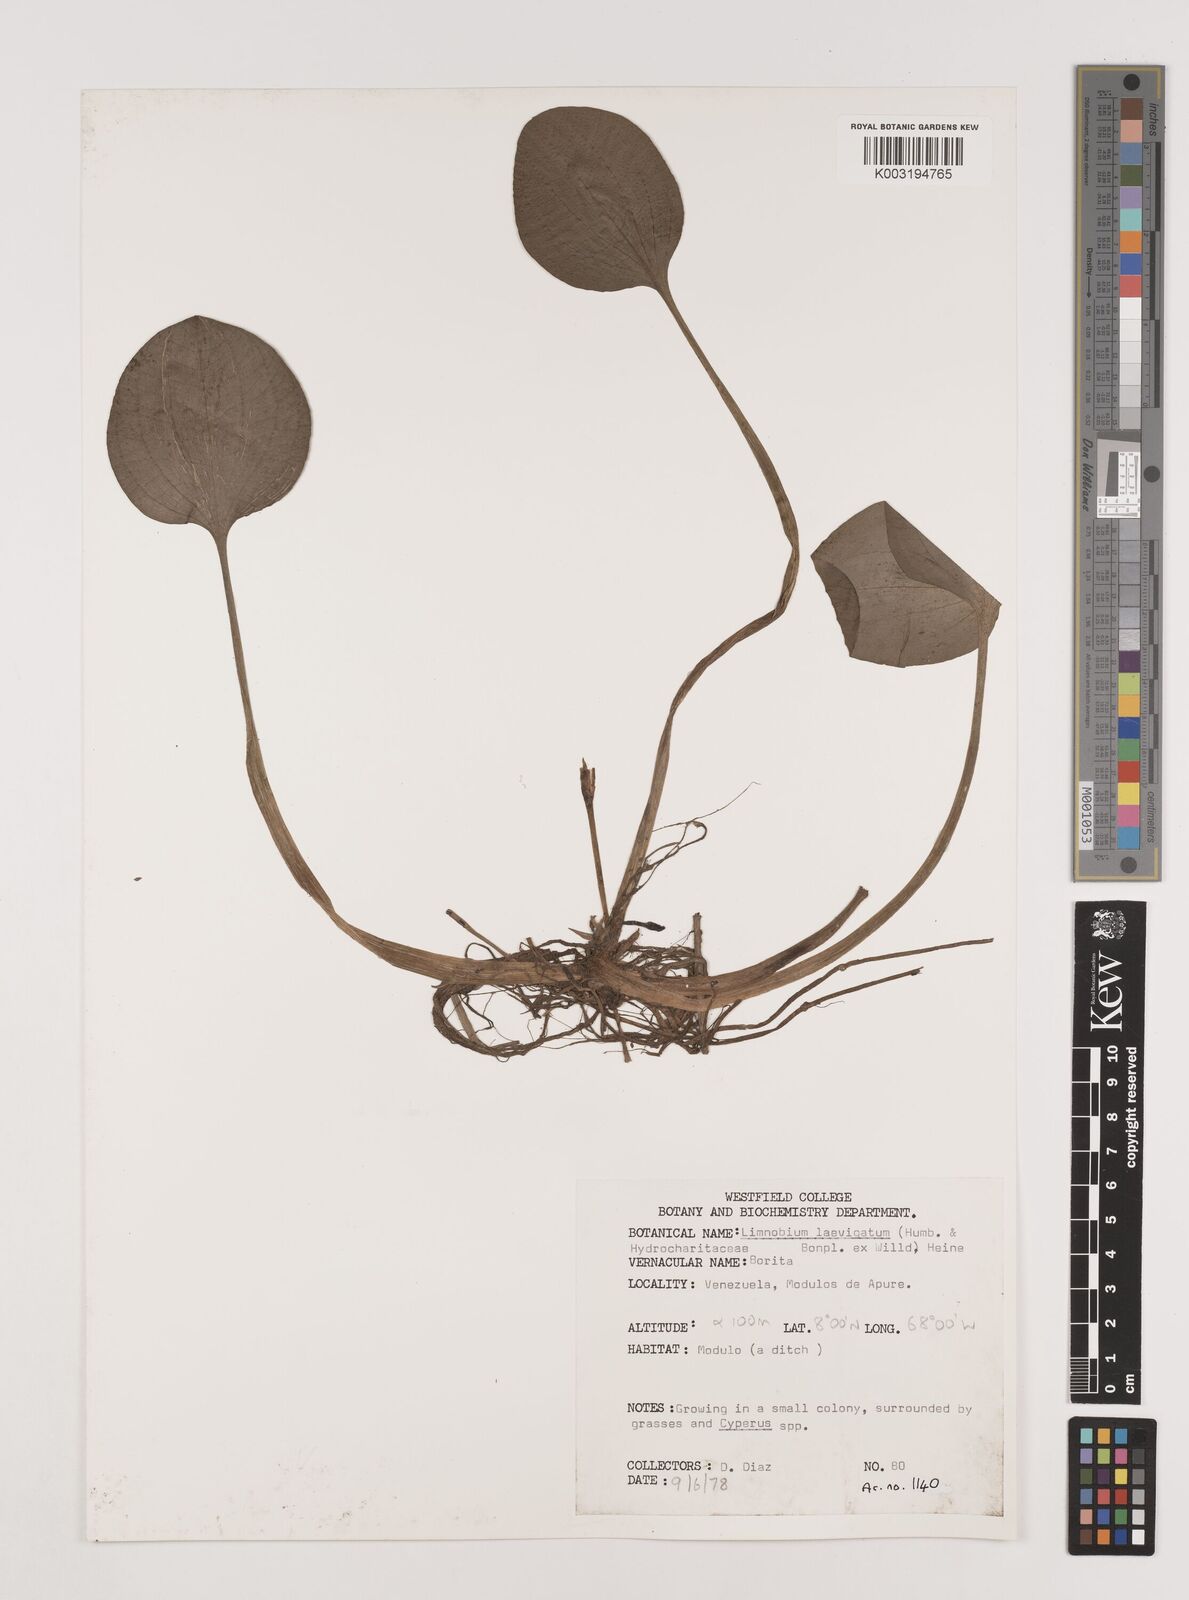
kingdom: Plantae
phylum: Tracheophyta
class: Liliopsida
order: Alismatales
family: Hydrocharitaceae
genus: Hydrocharis
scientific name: Hydrocharis laevigata
